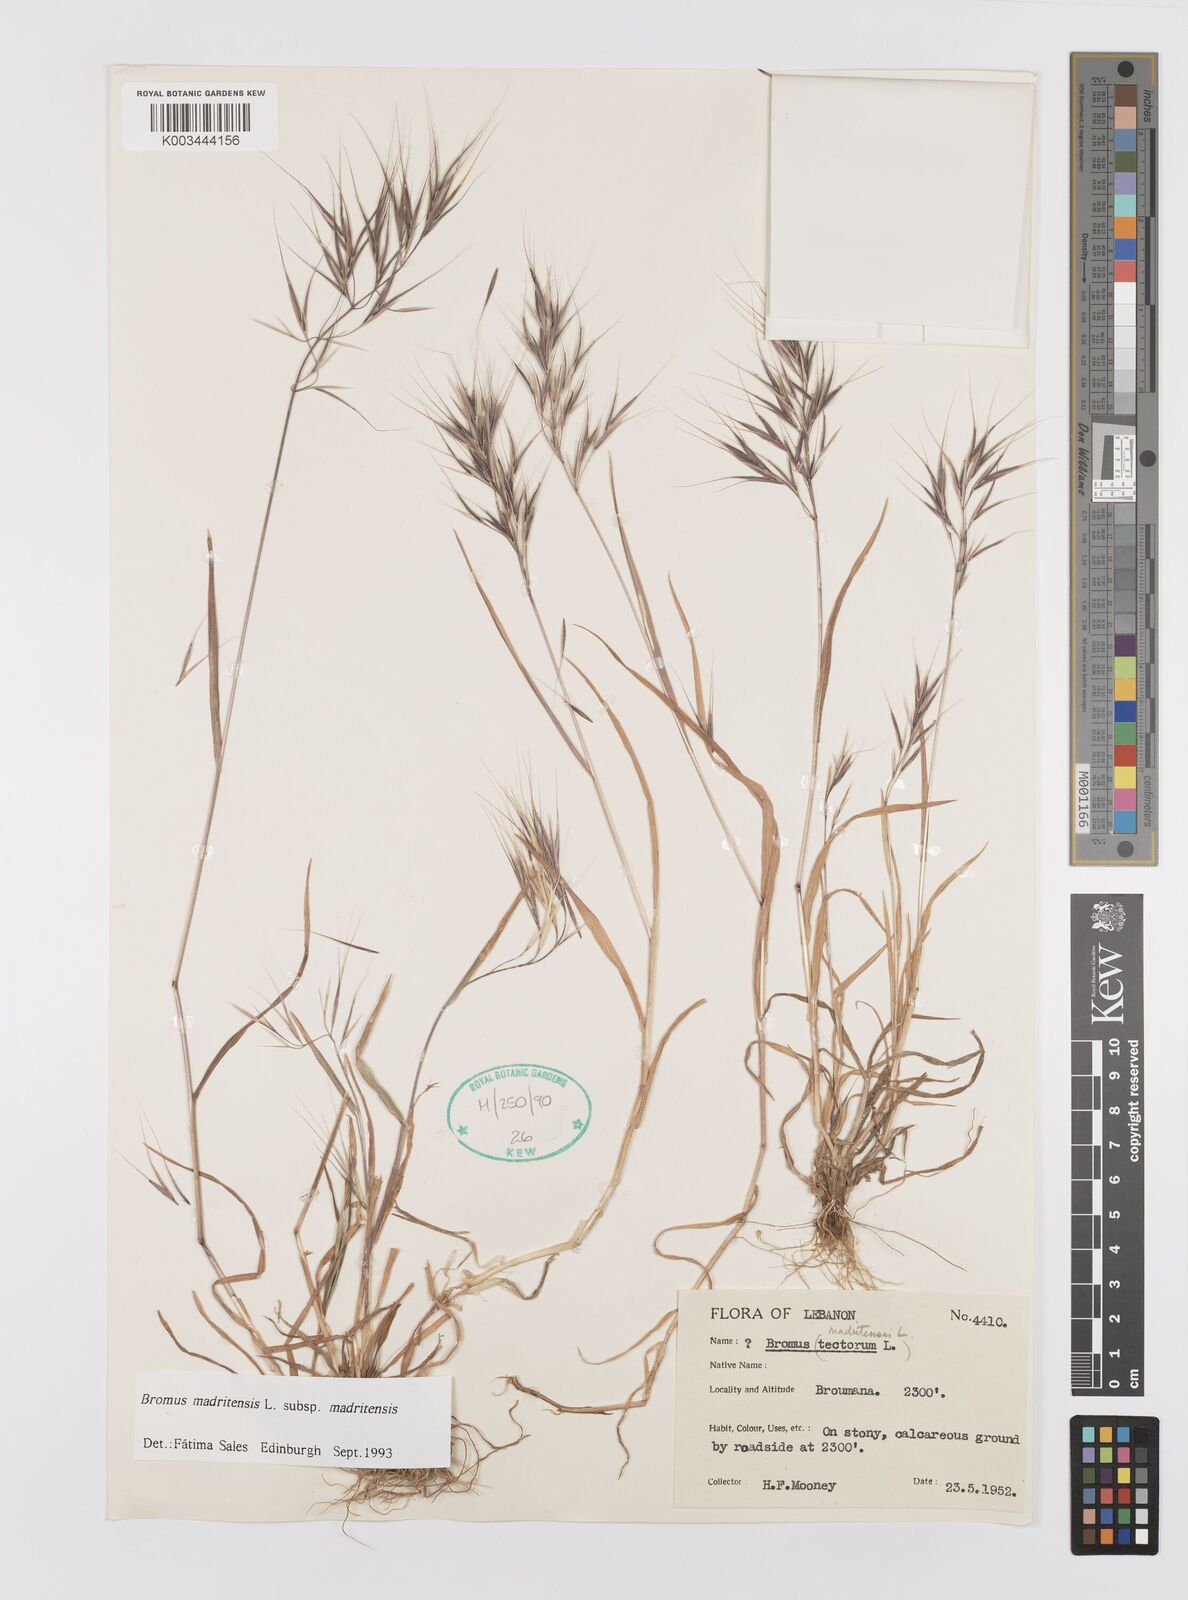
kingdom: Plantae
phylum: Tracheophyta
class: Liliopsida
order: Poales
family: Poaceae
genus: Bromus
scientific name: Bromus madritensis
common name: Compact brome
